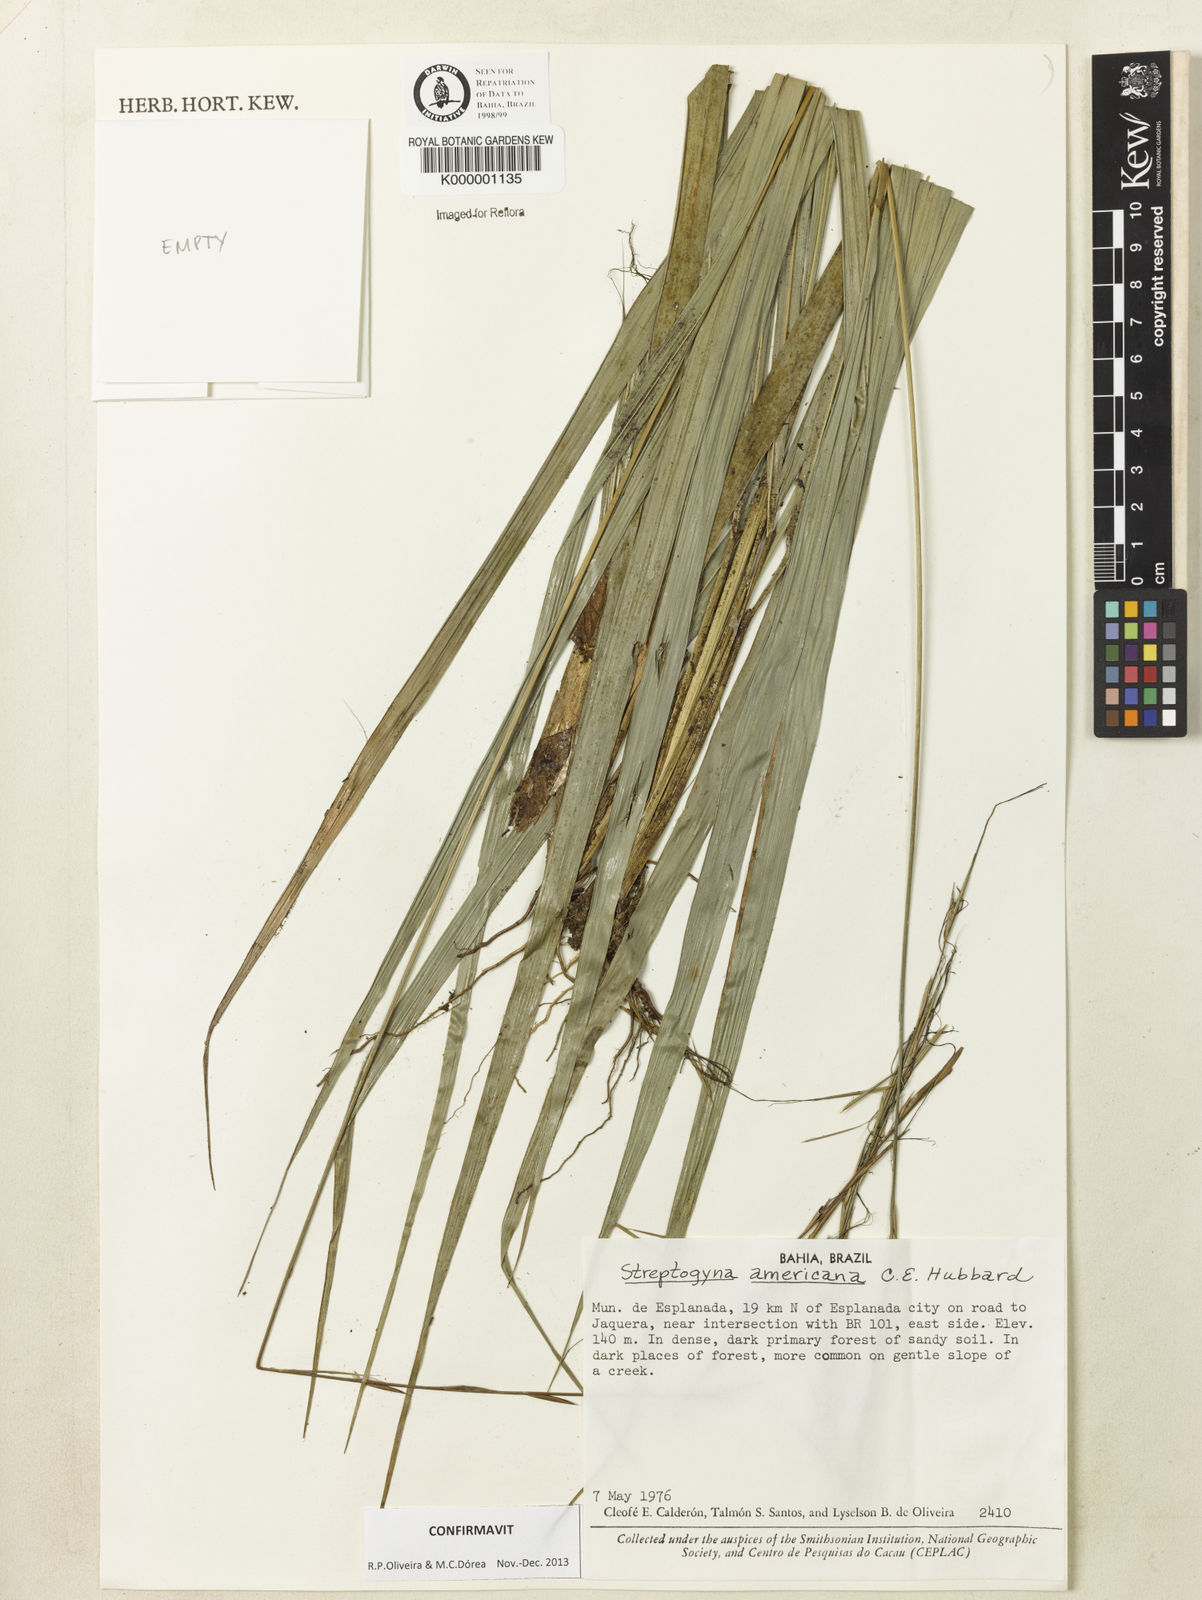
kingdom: Plantae
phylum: Tracheophyta
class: Liliopsida
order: Poales
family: Poaceae
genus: Streptogyna
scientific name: Streptogyna americana
